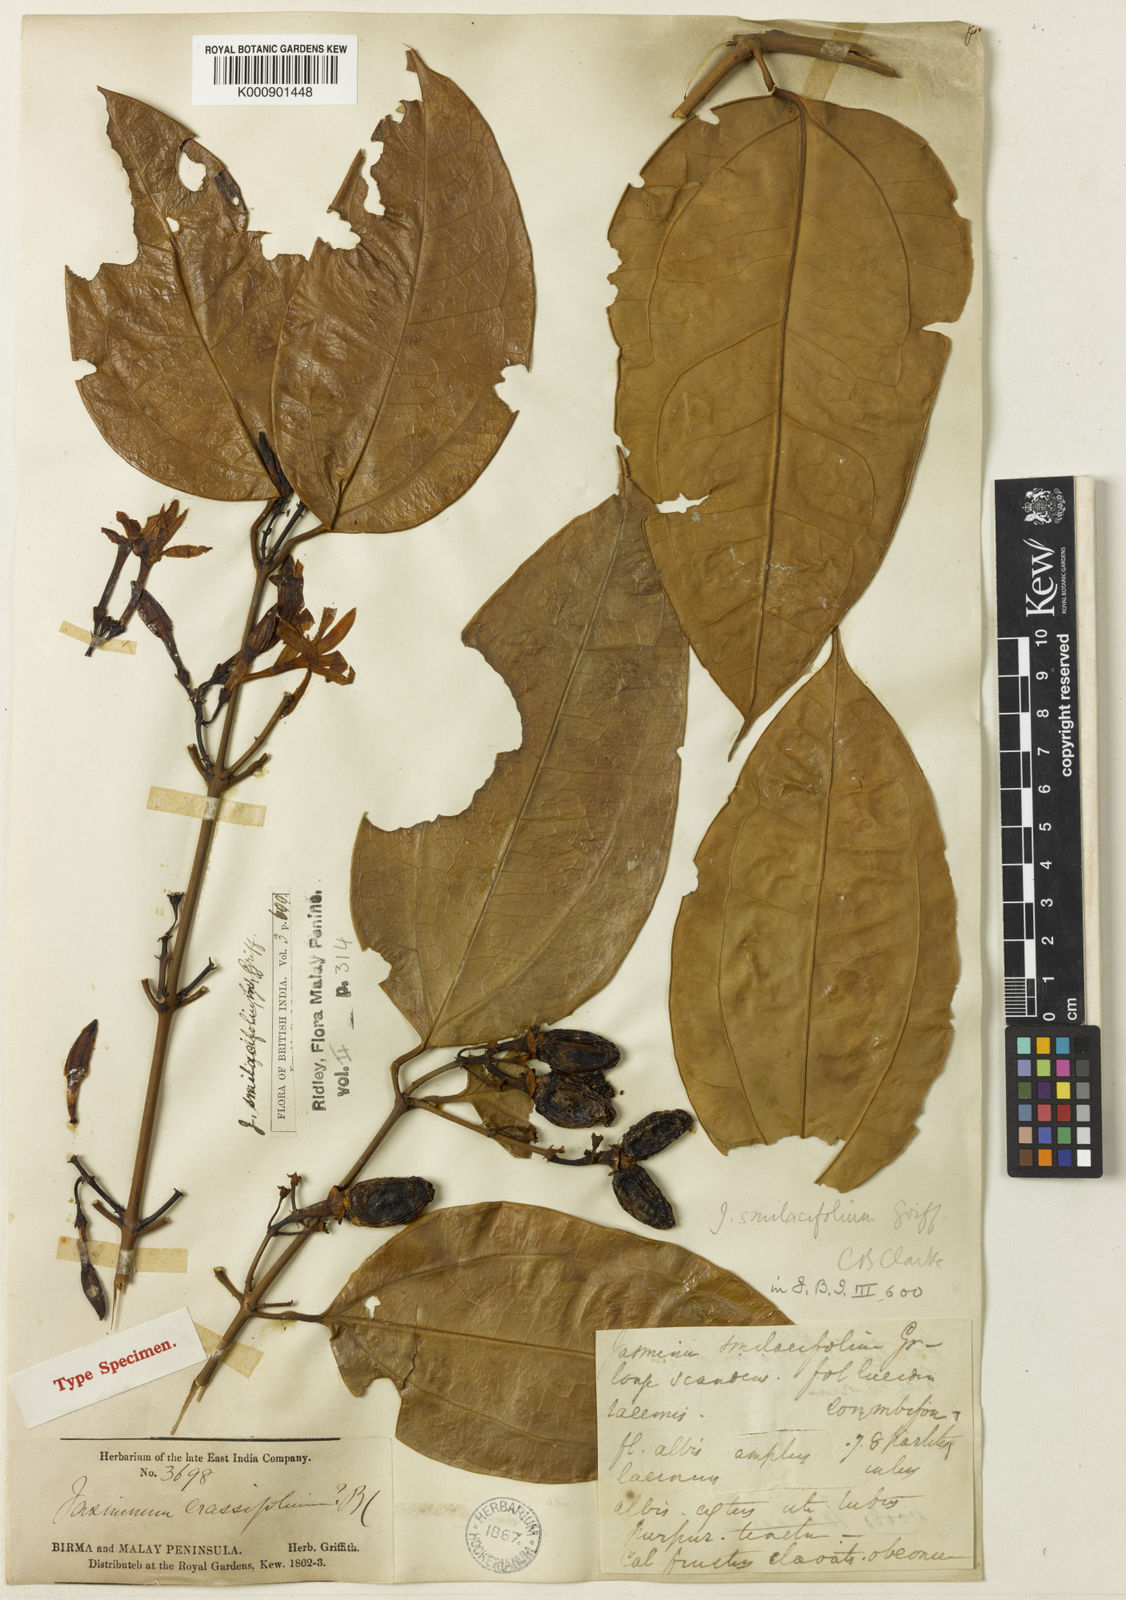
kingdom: Plantae
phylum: Tracheophyta
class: Magnoliopsida
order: Lamiales
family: Oleaceae
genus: Jasminum
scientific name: Jasminum smilacifolium
